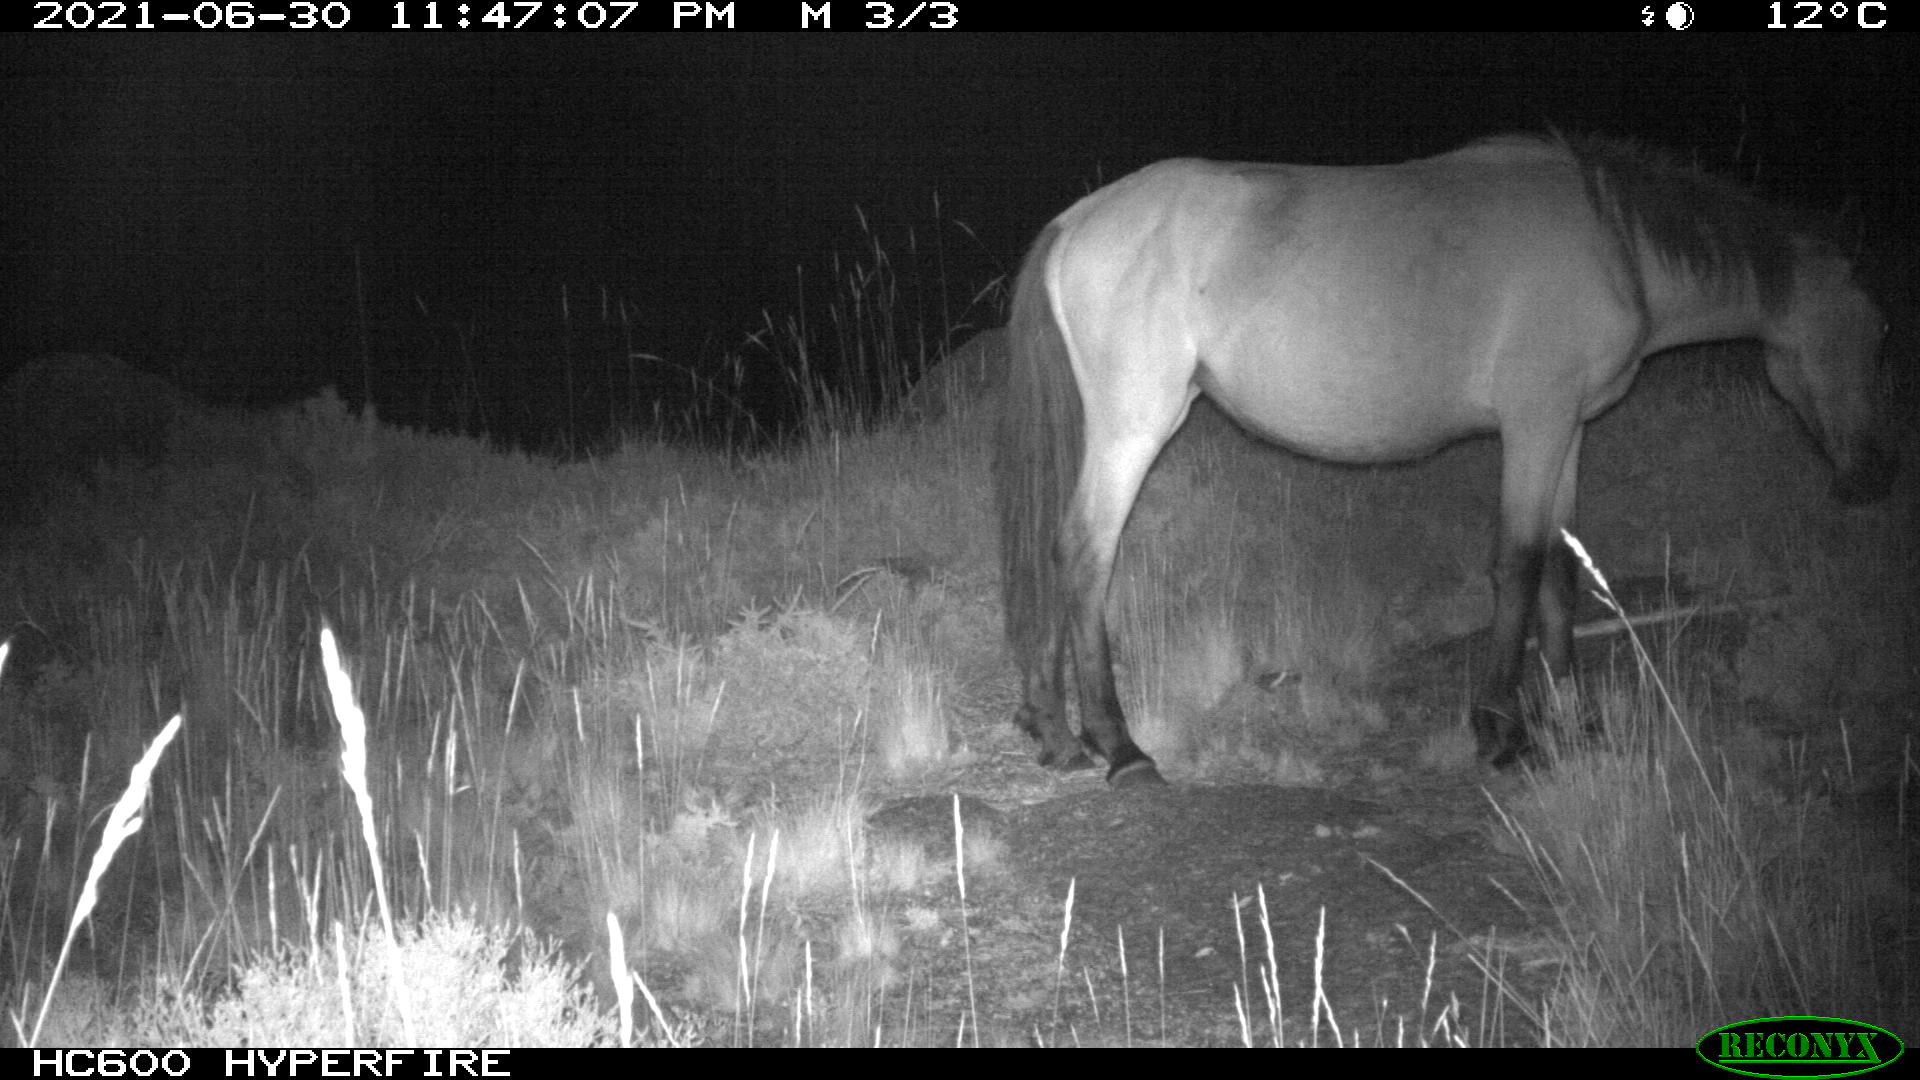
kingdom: Animalia
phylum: Chordata
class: Mammalia
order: Perissodactyla
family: Equidae
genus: Equus
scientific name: Equus caballus
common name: Horse
